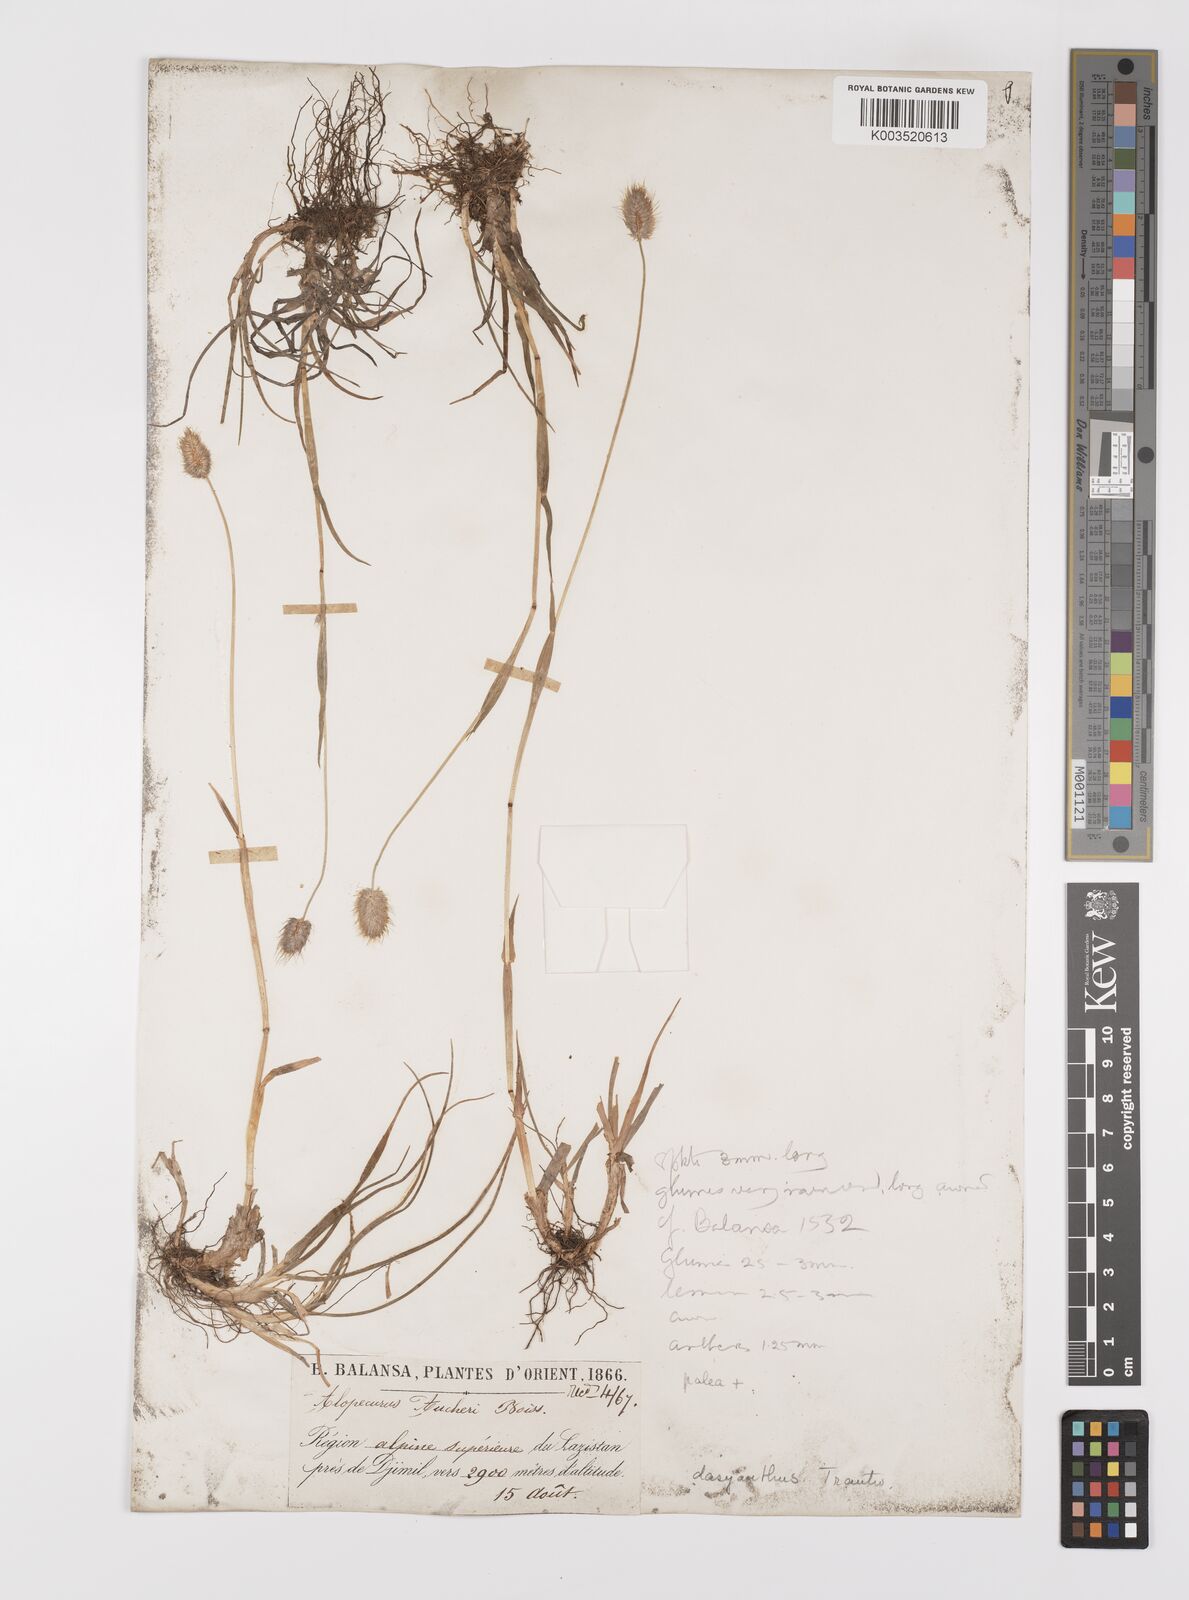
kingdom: Plantae
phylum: Tracheophyta
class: Liliopsida
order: Poales
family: Poaceae
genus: Alopecurus
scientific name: Alopecurus dasyanthus
